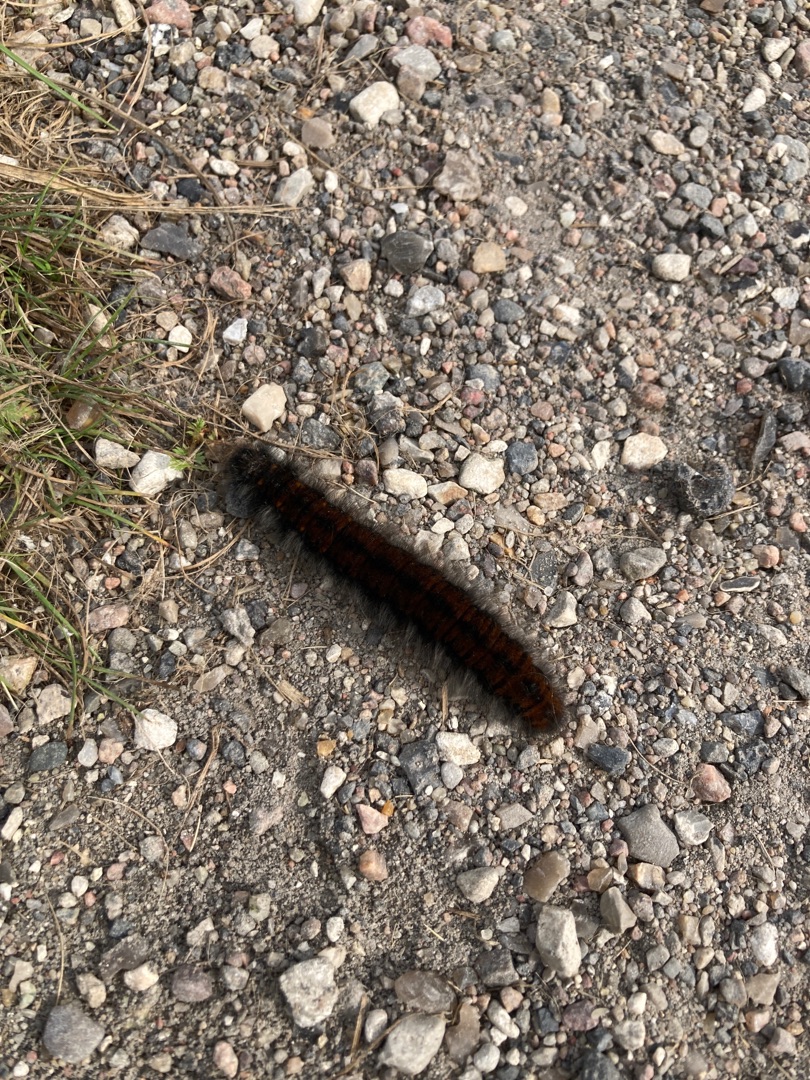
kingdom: Animalia
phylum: Arthropoda
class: Insecta
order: Lepidoptera
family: Lasiocampidae
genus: Macrothylacia
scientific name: Macrothylacia rubi
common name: Brombærspinder
